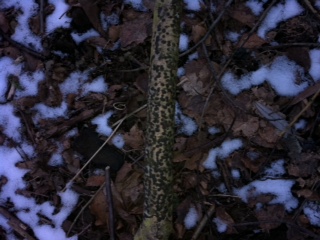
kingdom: Fungi
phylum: Ascomycota
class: Sordariomycetes
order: Xylariales
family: Diatrypaceae
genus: Diatrype
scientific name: Diatrype bullata
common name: pile-kulskorpe
